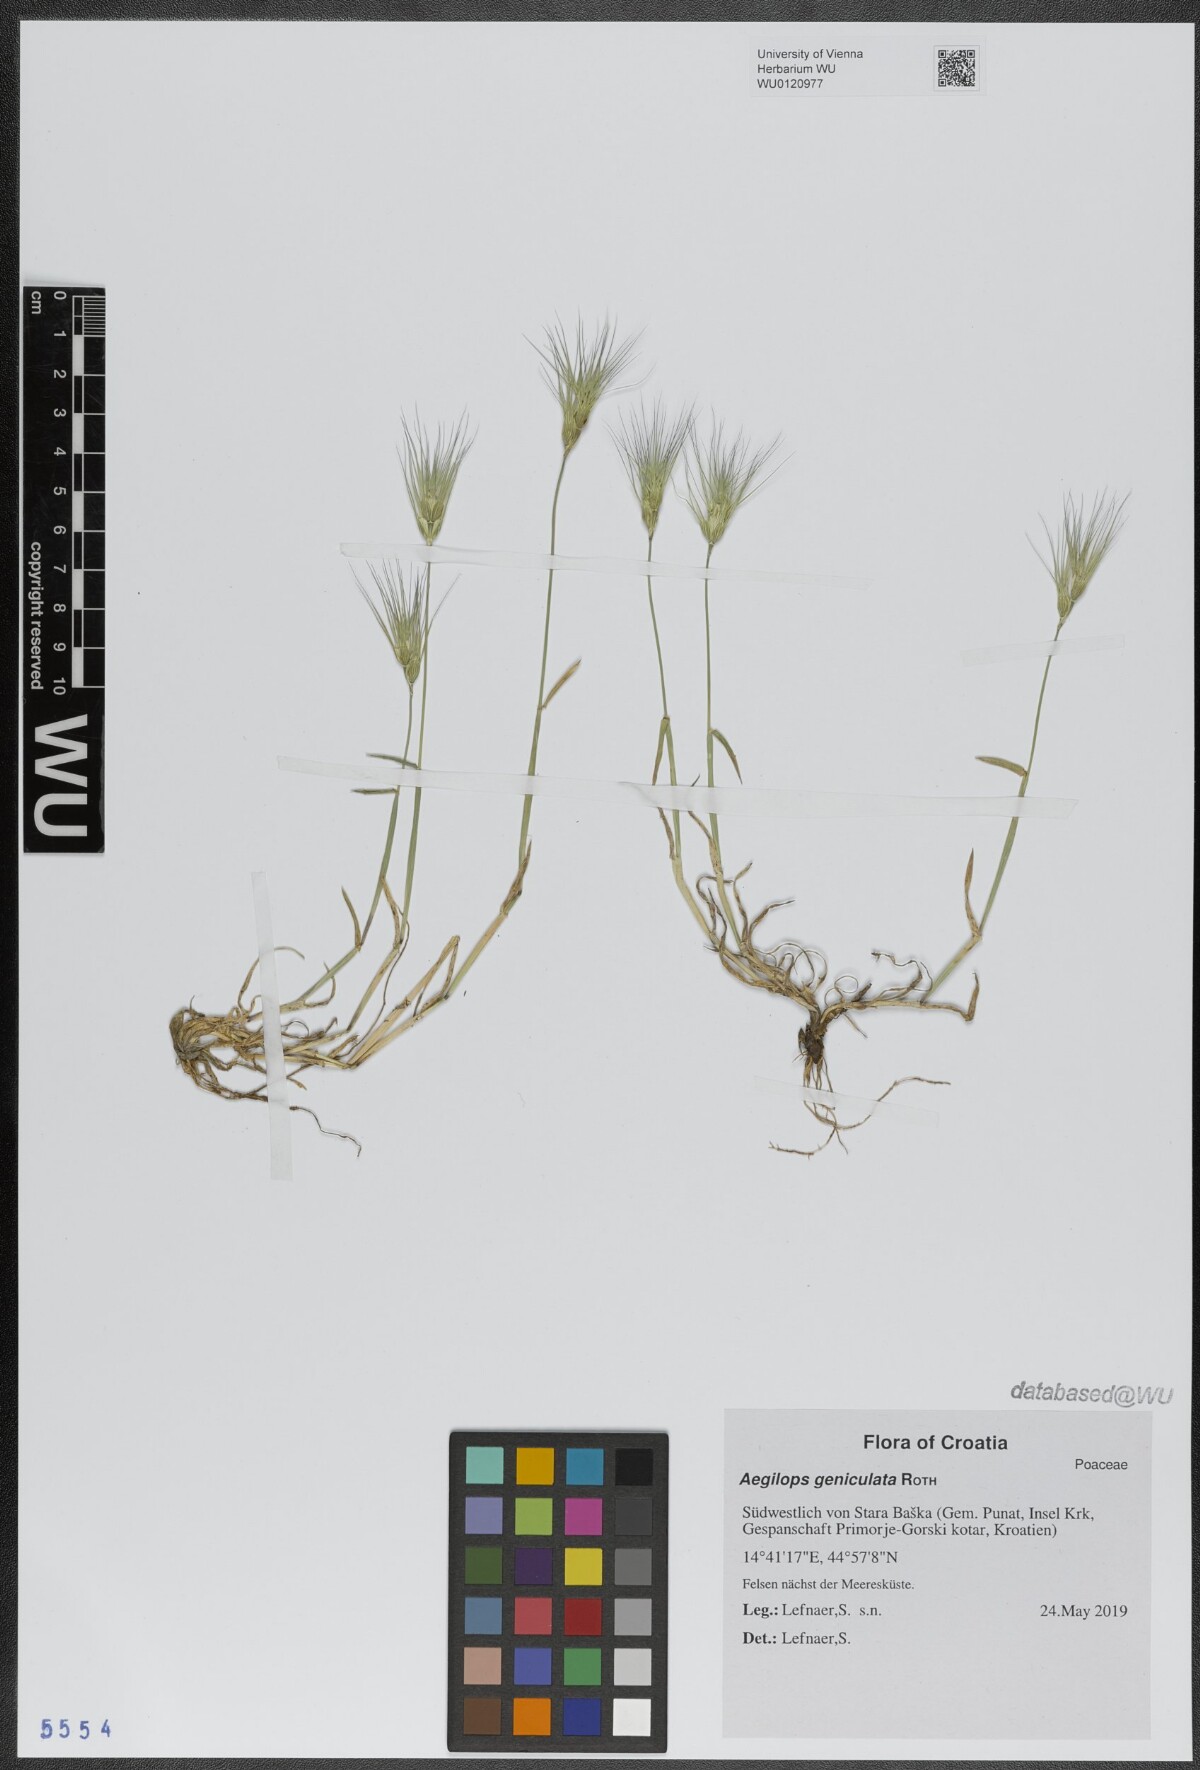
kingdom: Plantae
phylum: Tracheophyta
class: Liliopsida
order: Poales
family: Poaceae
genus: Aegilops
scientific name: Aegilops geniculata
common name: Ovate goat grass
